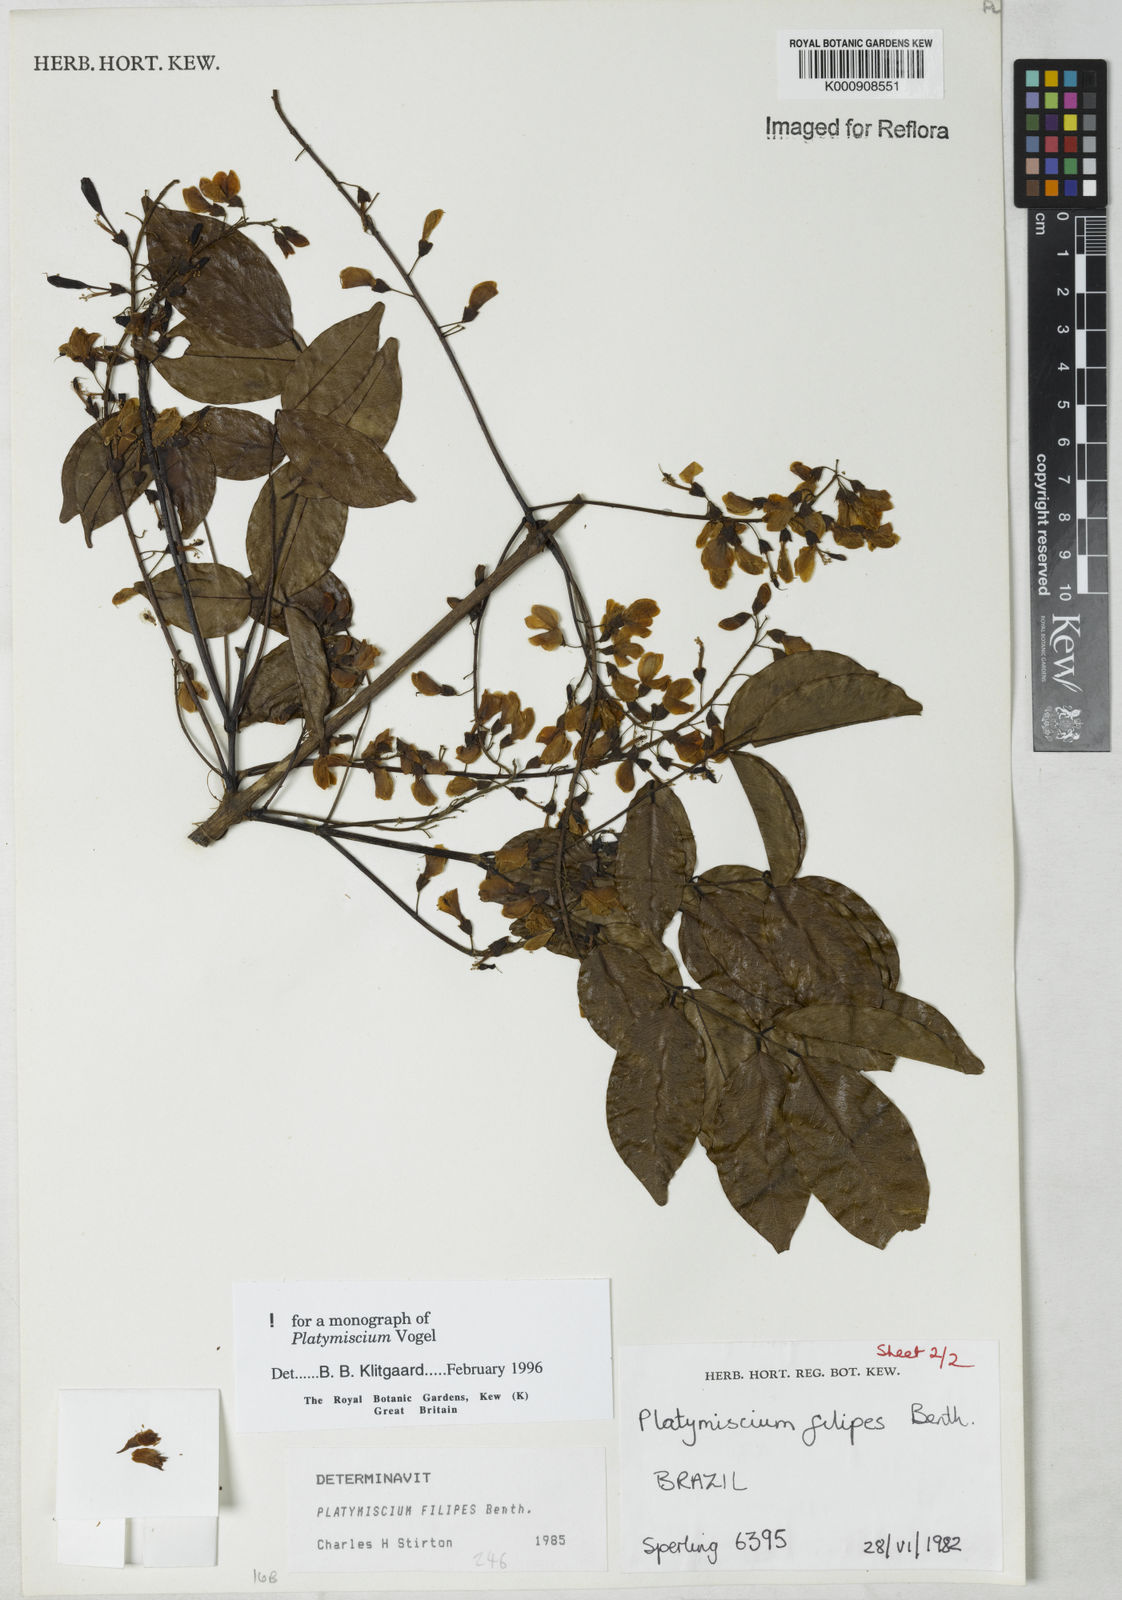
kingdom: Plantae
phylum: Tracheophyta
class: Magnoliopsida
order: Fabales
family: Fabaceae
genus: Platymiscium
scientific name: Platymiscium filipes
